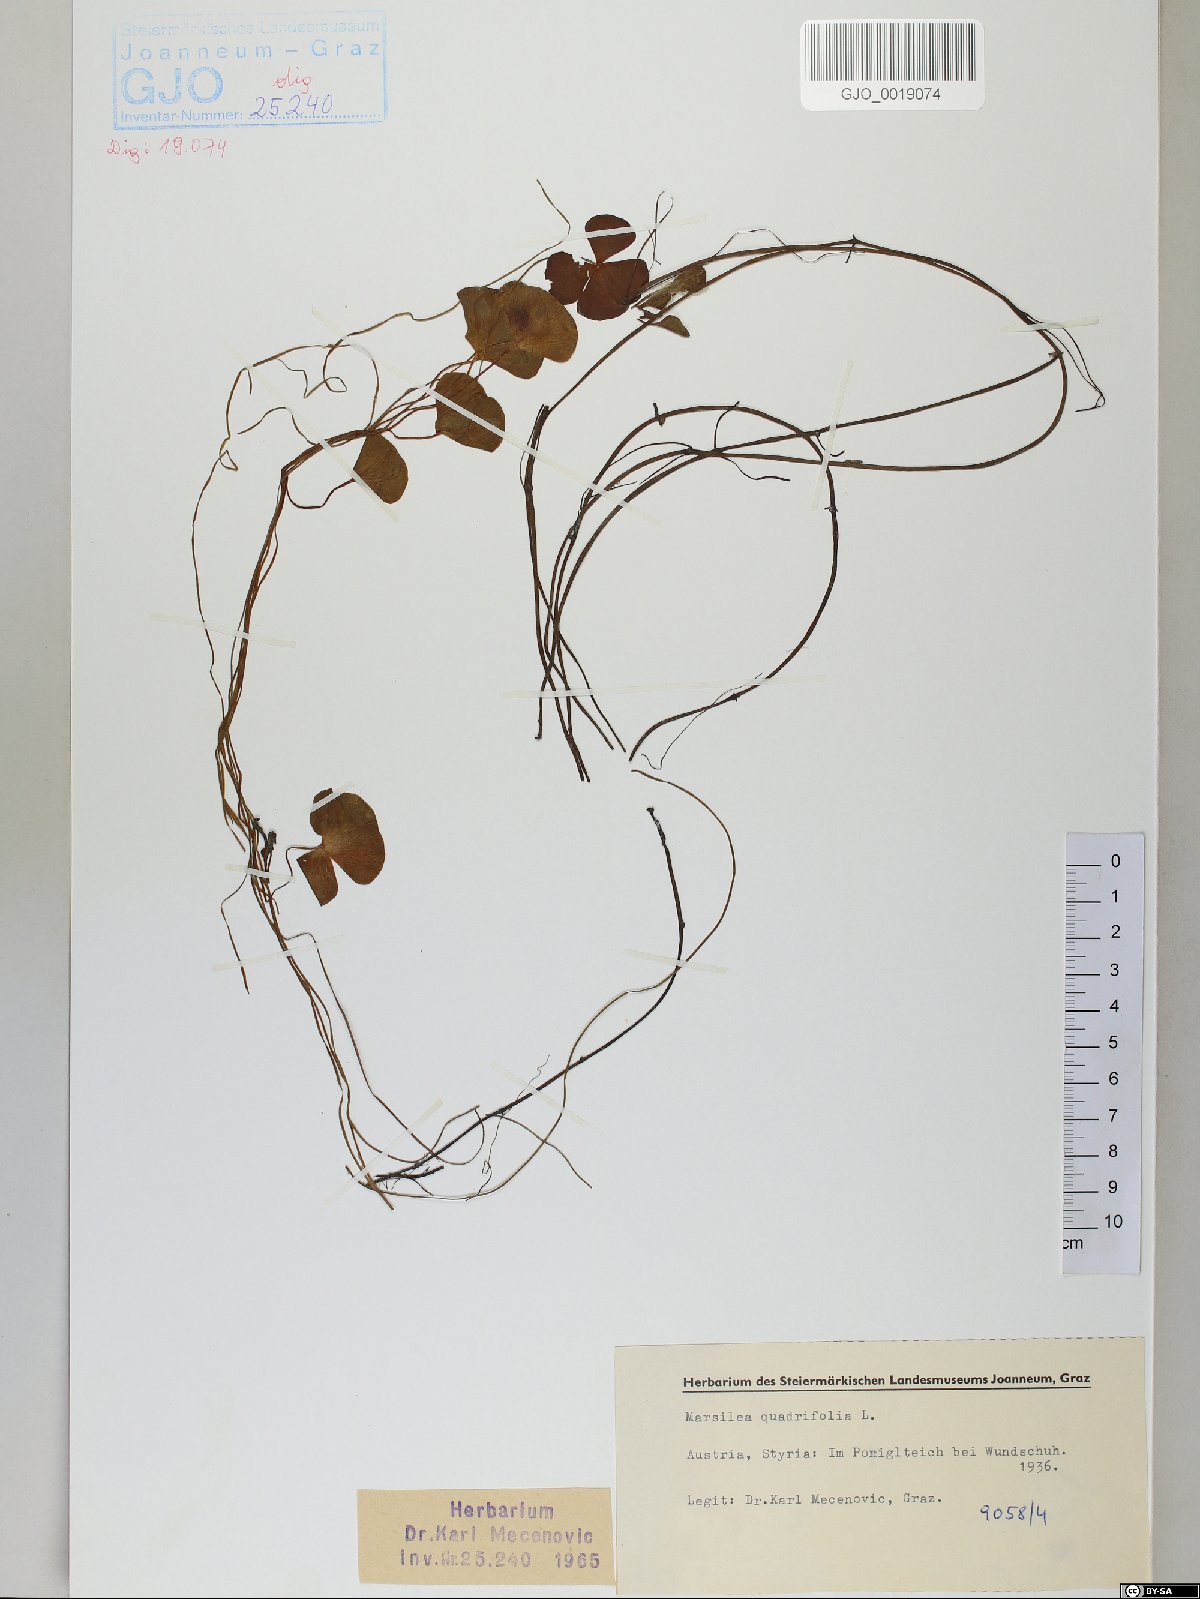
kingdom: Plantae
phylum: Tracheophyta
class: Polypodiopsida
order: Salviniales
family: Marsileaceae
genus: Marsilea
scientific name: Marsilea quadrifolia
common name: Water shamrock
